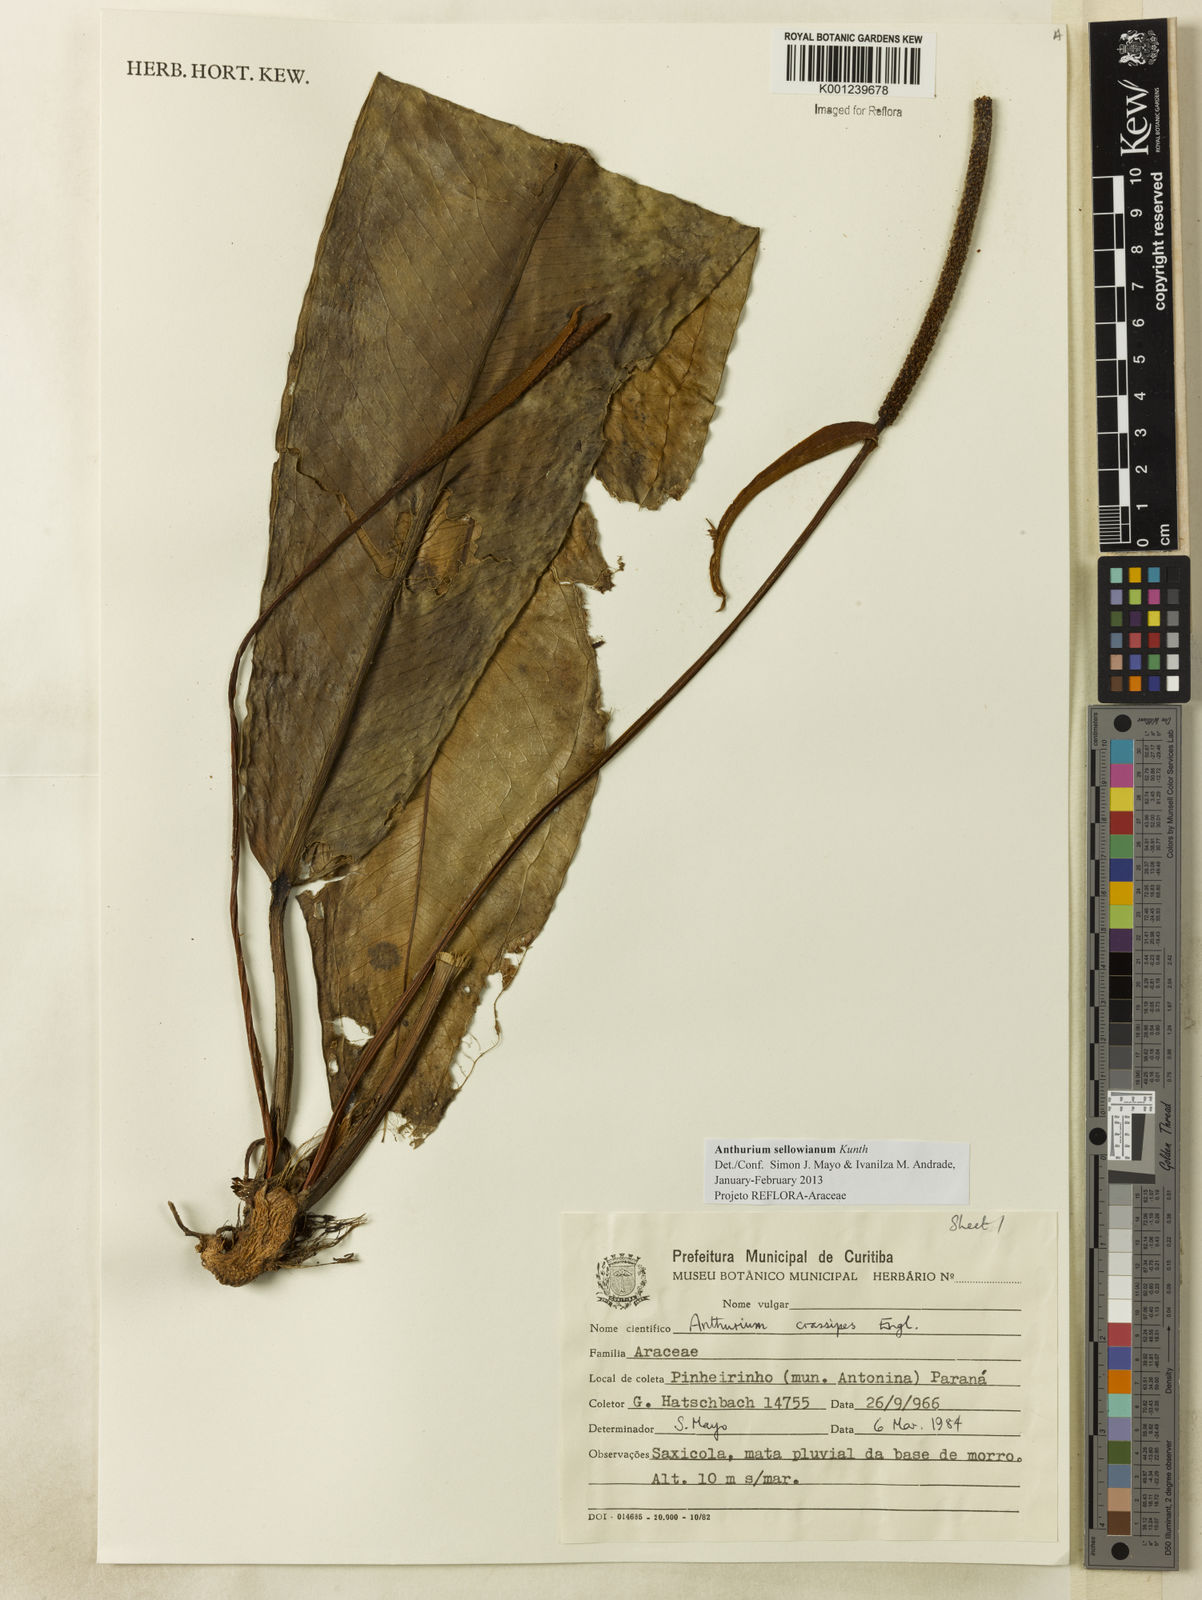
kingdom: Plantae
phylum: Tracheophyta
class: Liliopsida
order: Alismatales
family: Araceae
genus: Anthurium
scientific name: Anthurium sellowianum
